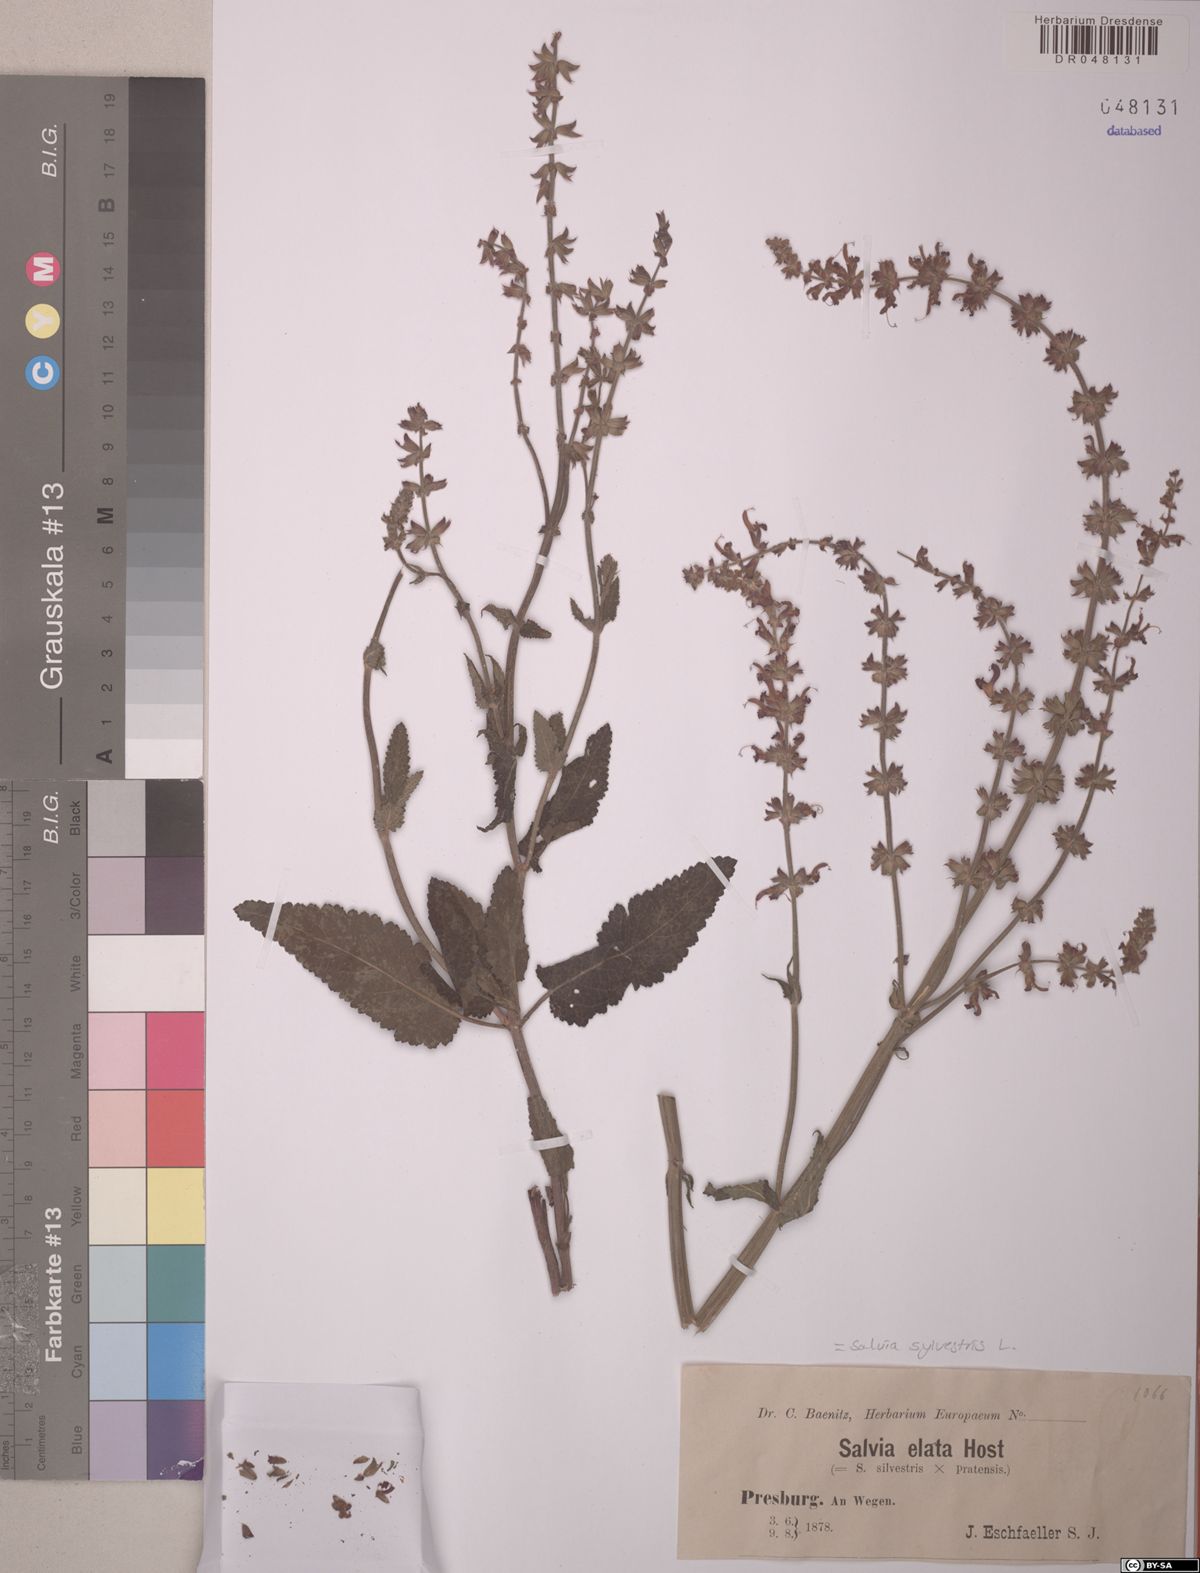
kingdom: Plantae
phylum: Tracheophyta
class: Magnoliopsida
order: Lamiales
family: Lamiaceae
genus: Salvia
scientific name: Salvia sylvestris
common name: Woodland sage
